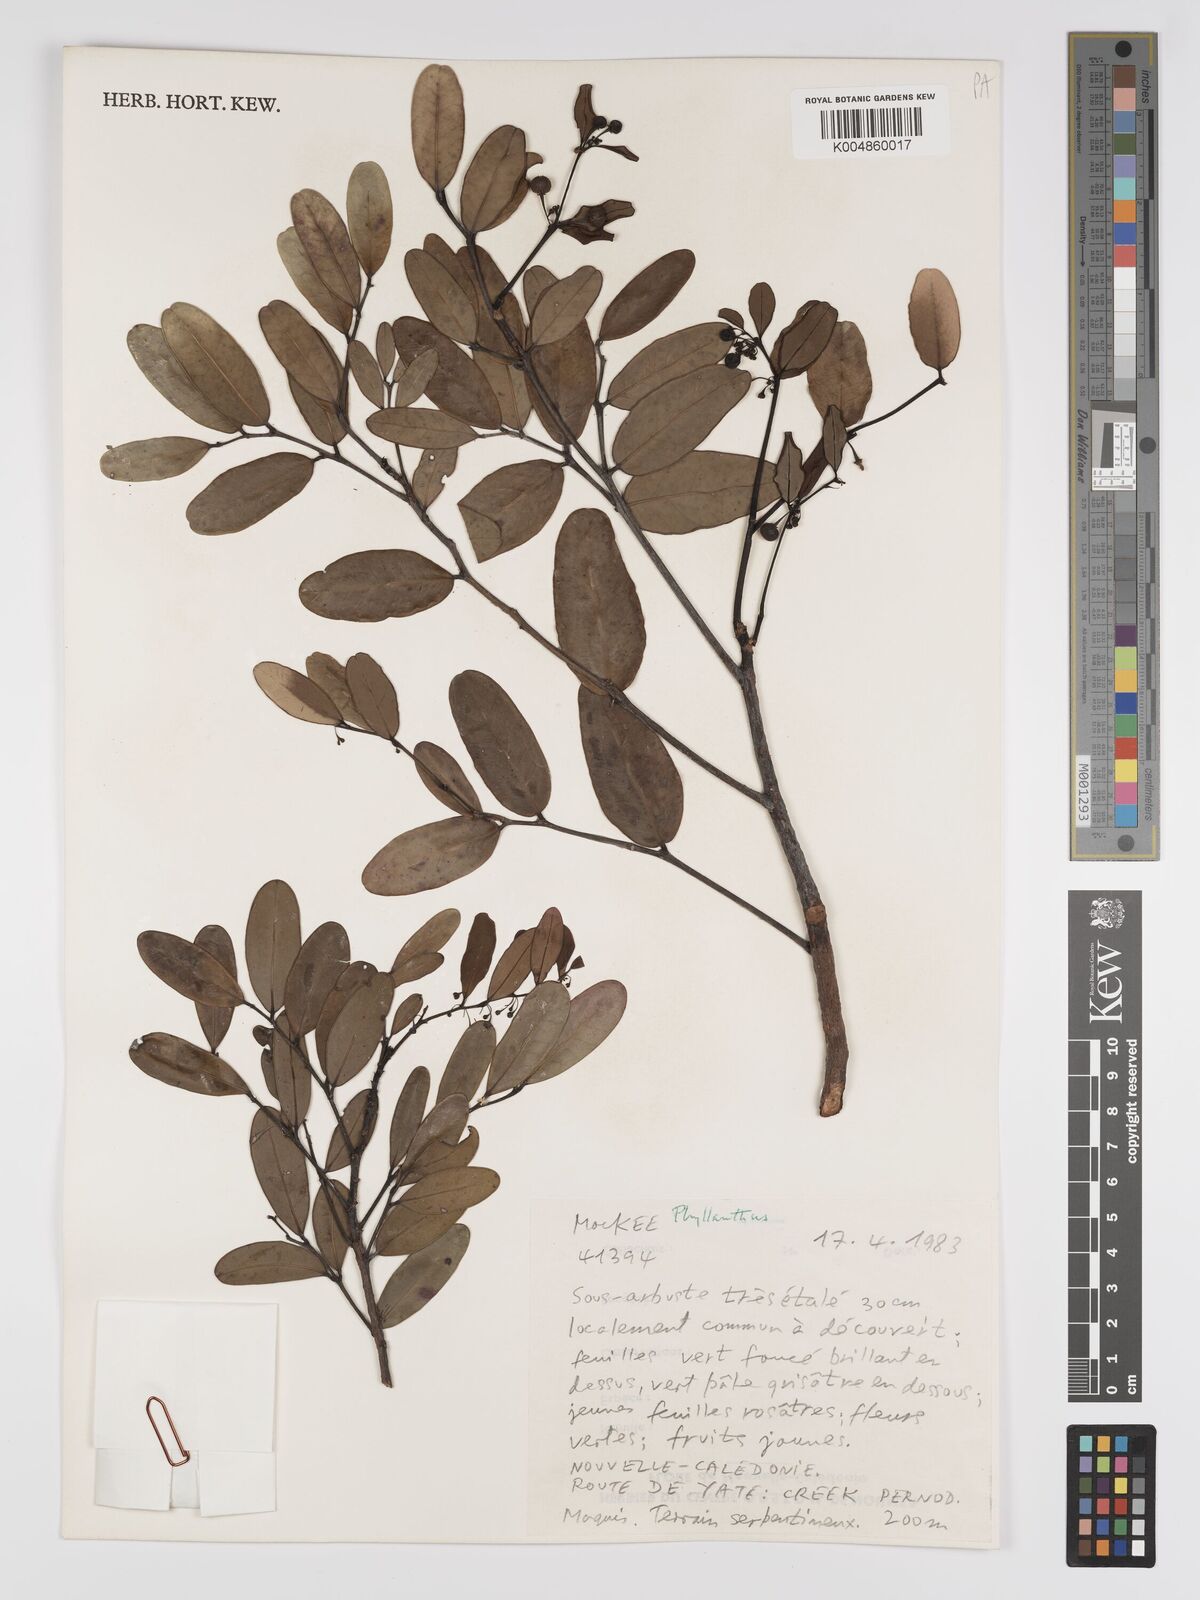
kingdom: Plantae
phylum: Tracheophyta
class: Magnoliopsida
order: Malpighiales
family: Phyllanthaceae
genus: Phyllanthus
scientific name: Phyllanthus
